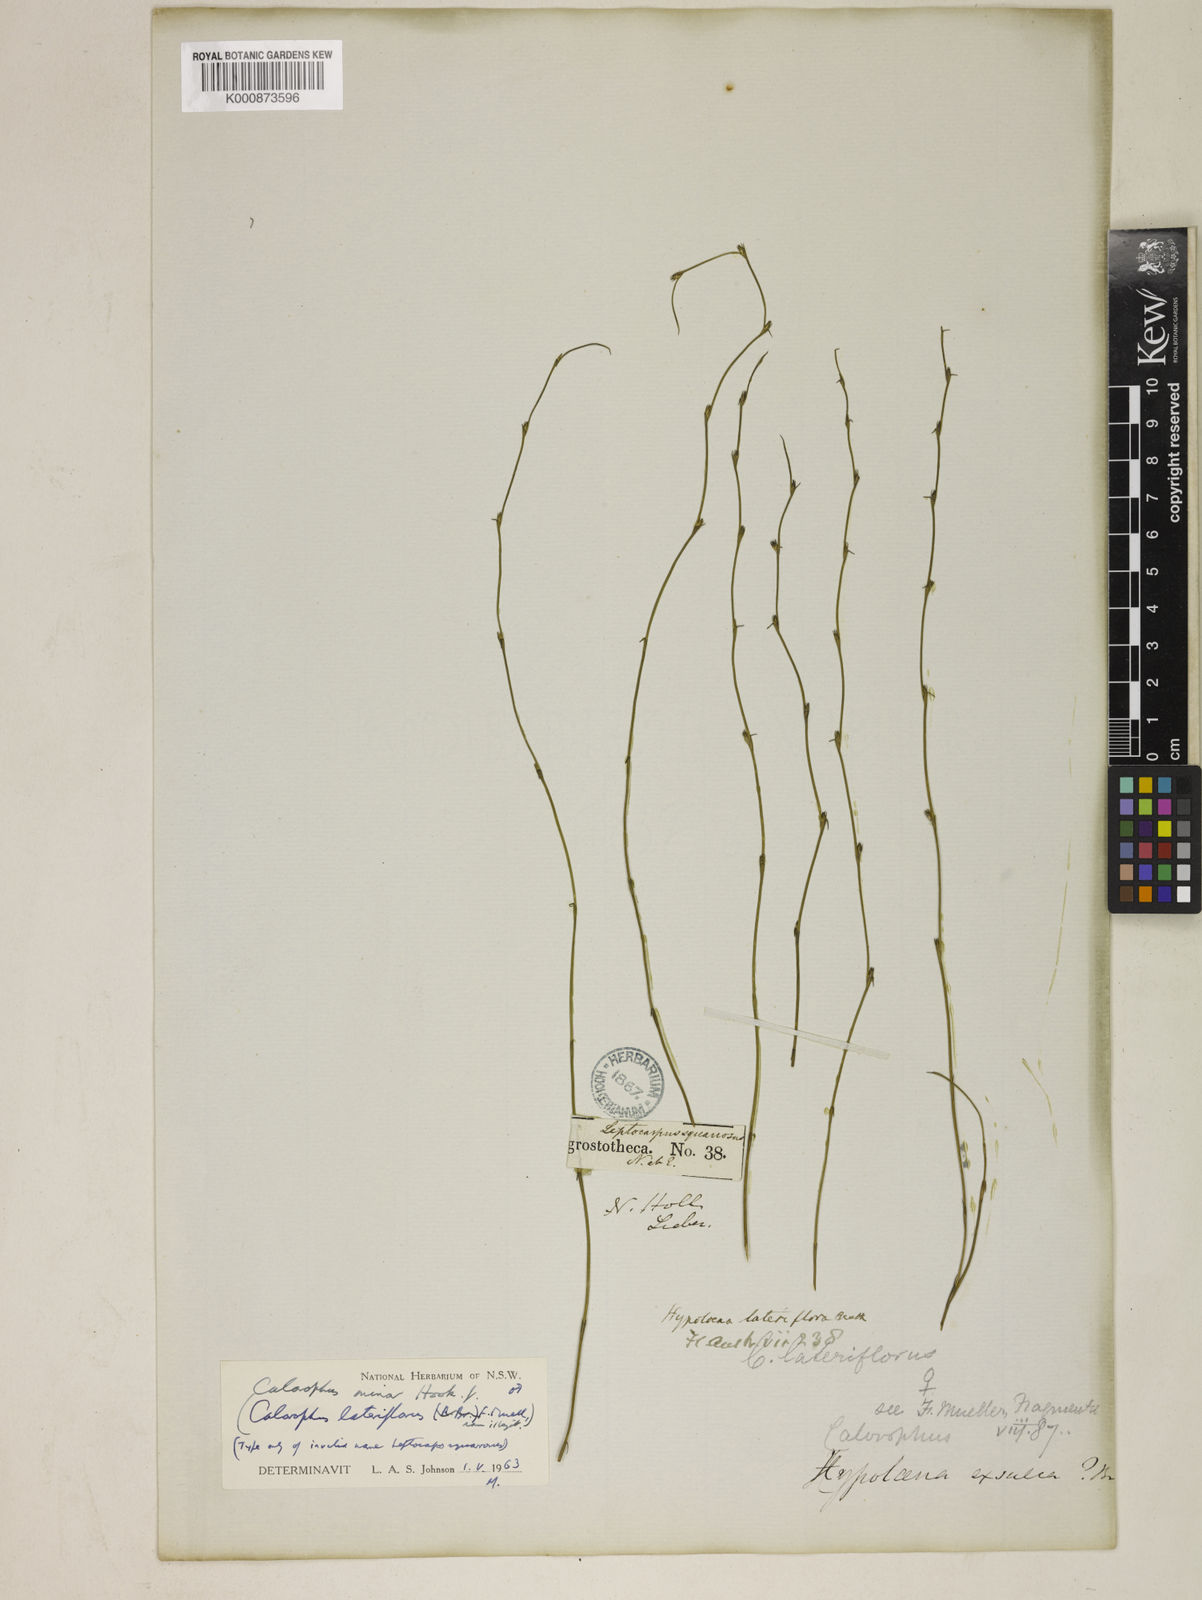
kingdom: Plantae
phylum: Tracheophyta
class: Liliopsida
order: Poales
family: Restionaceae
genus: Empodisma
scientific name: Empodisma minus
